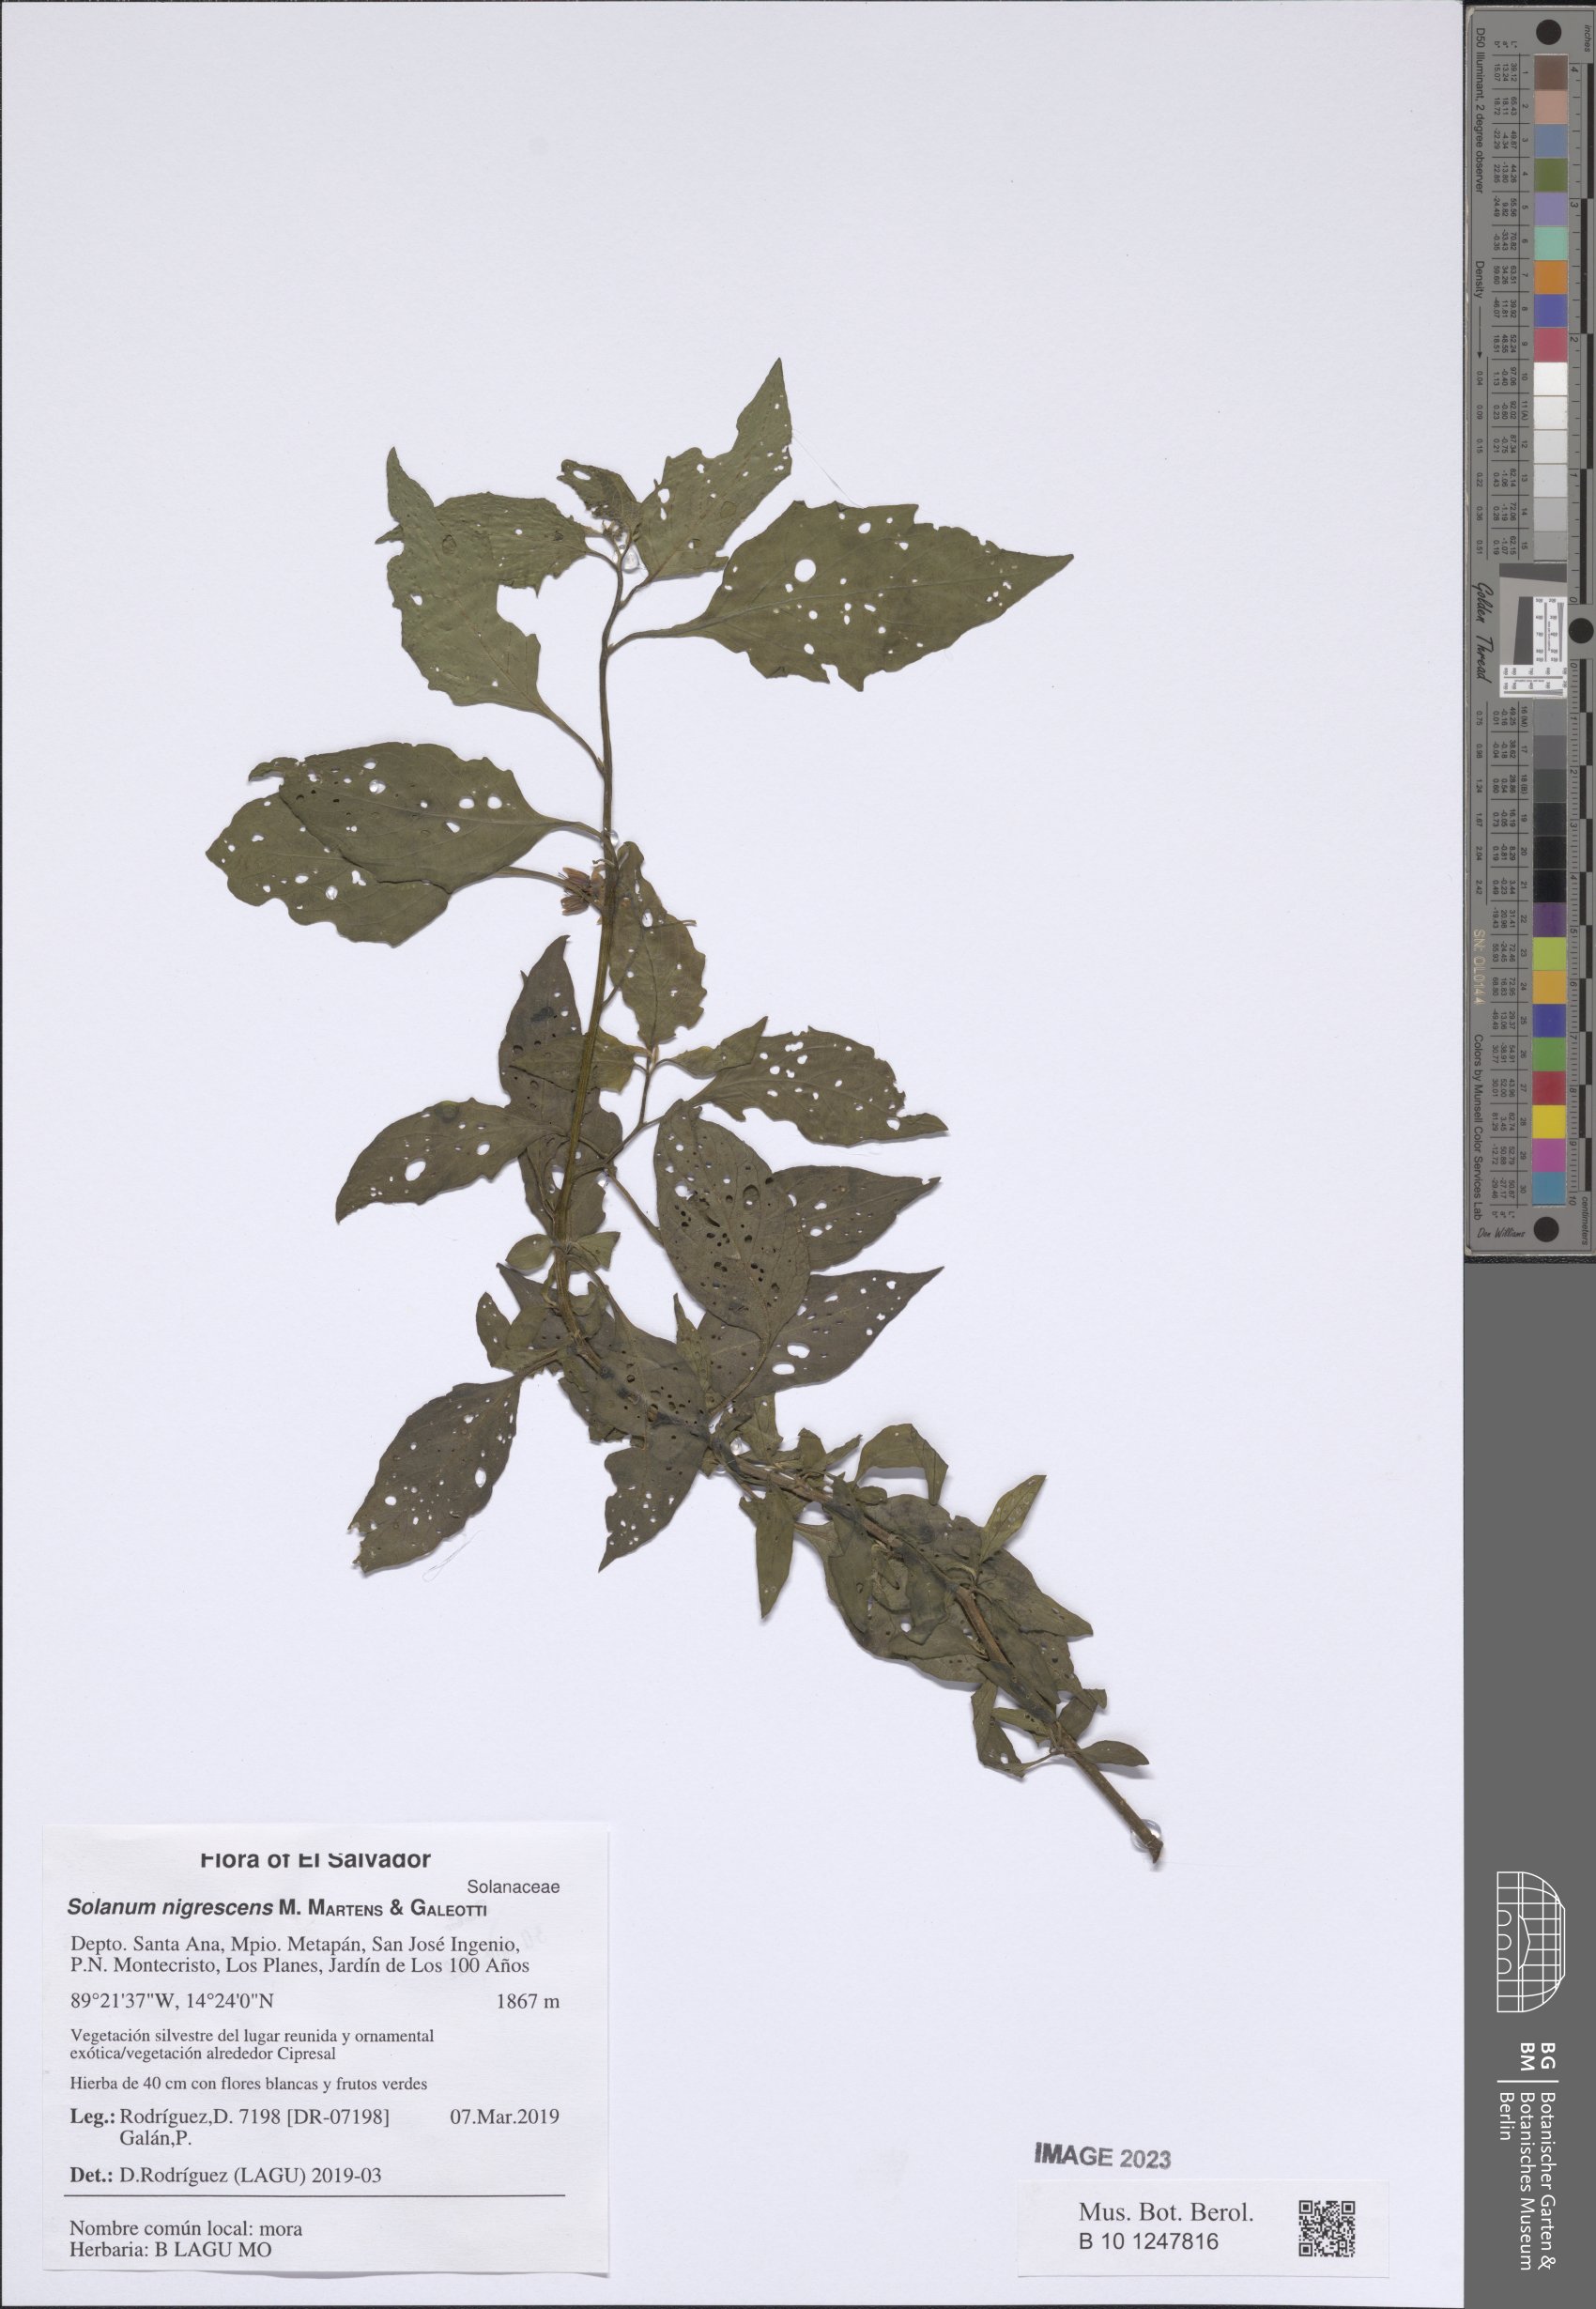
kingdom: Plantae
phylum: Tracheophyta
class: Magnoliopsida
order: Solanales
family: Solanaceae
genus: Solanum
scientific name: Solanum nigrescens
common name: Divine nightshade
